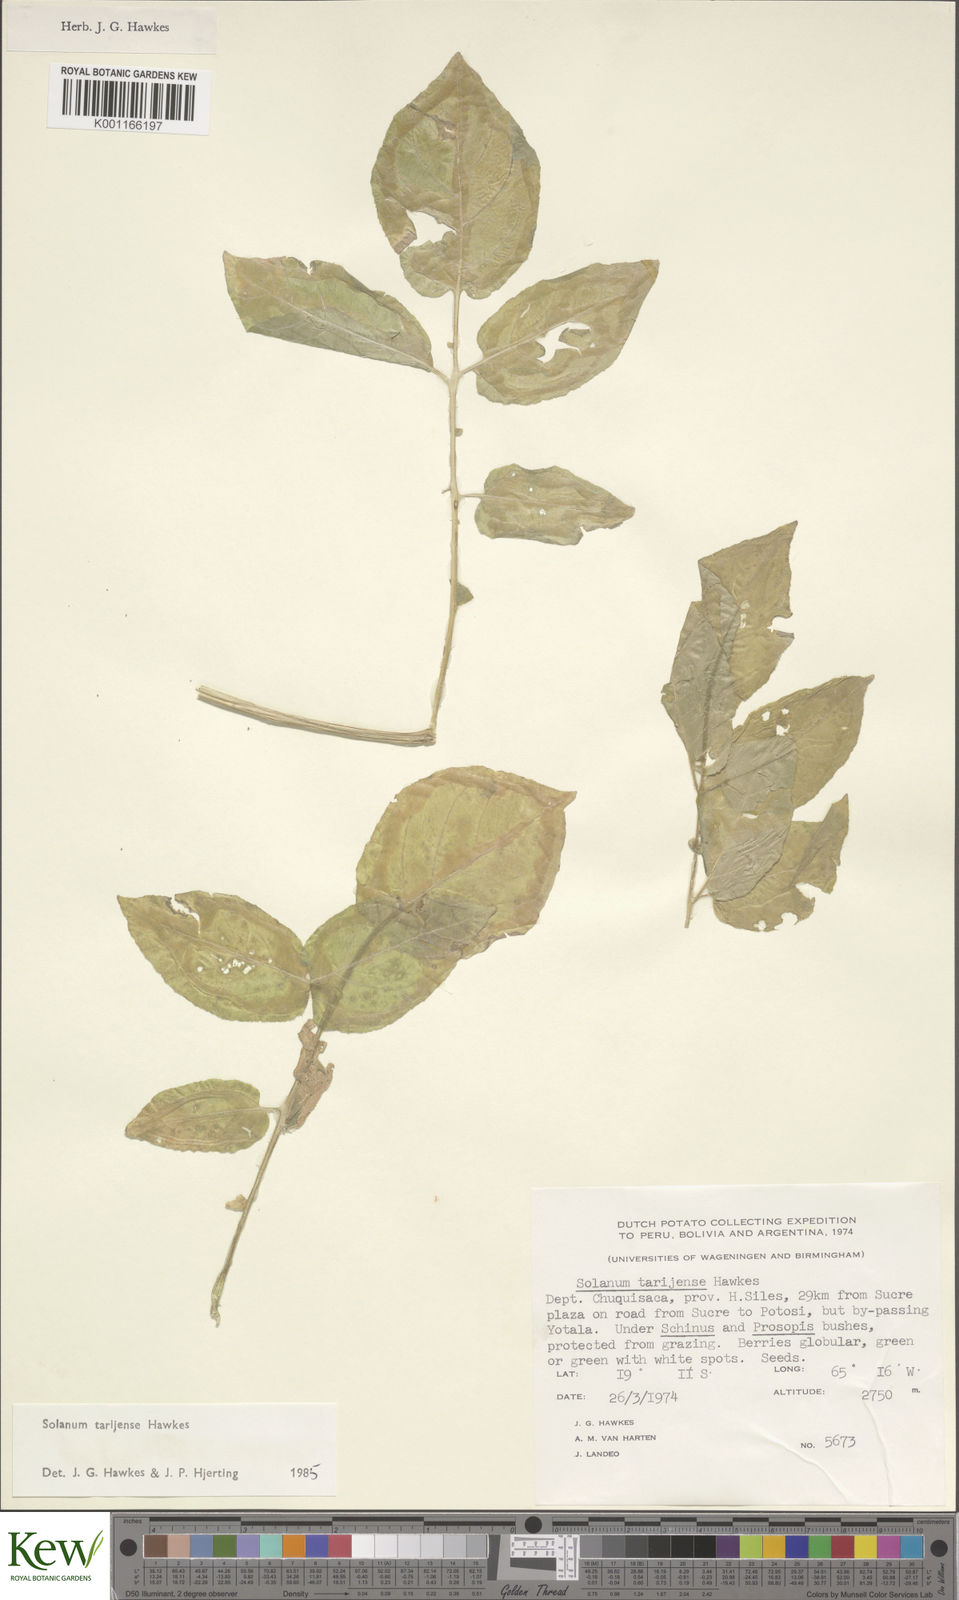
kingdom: Plantae
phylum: Tracheophyta
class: Magnoliopsida
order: Solanales
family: Solanaceae
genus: Solanum
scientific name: Solanum tarijense
